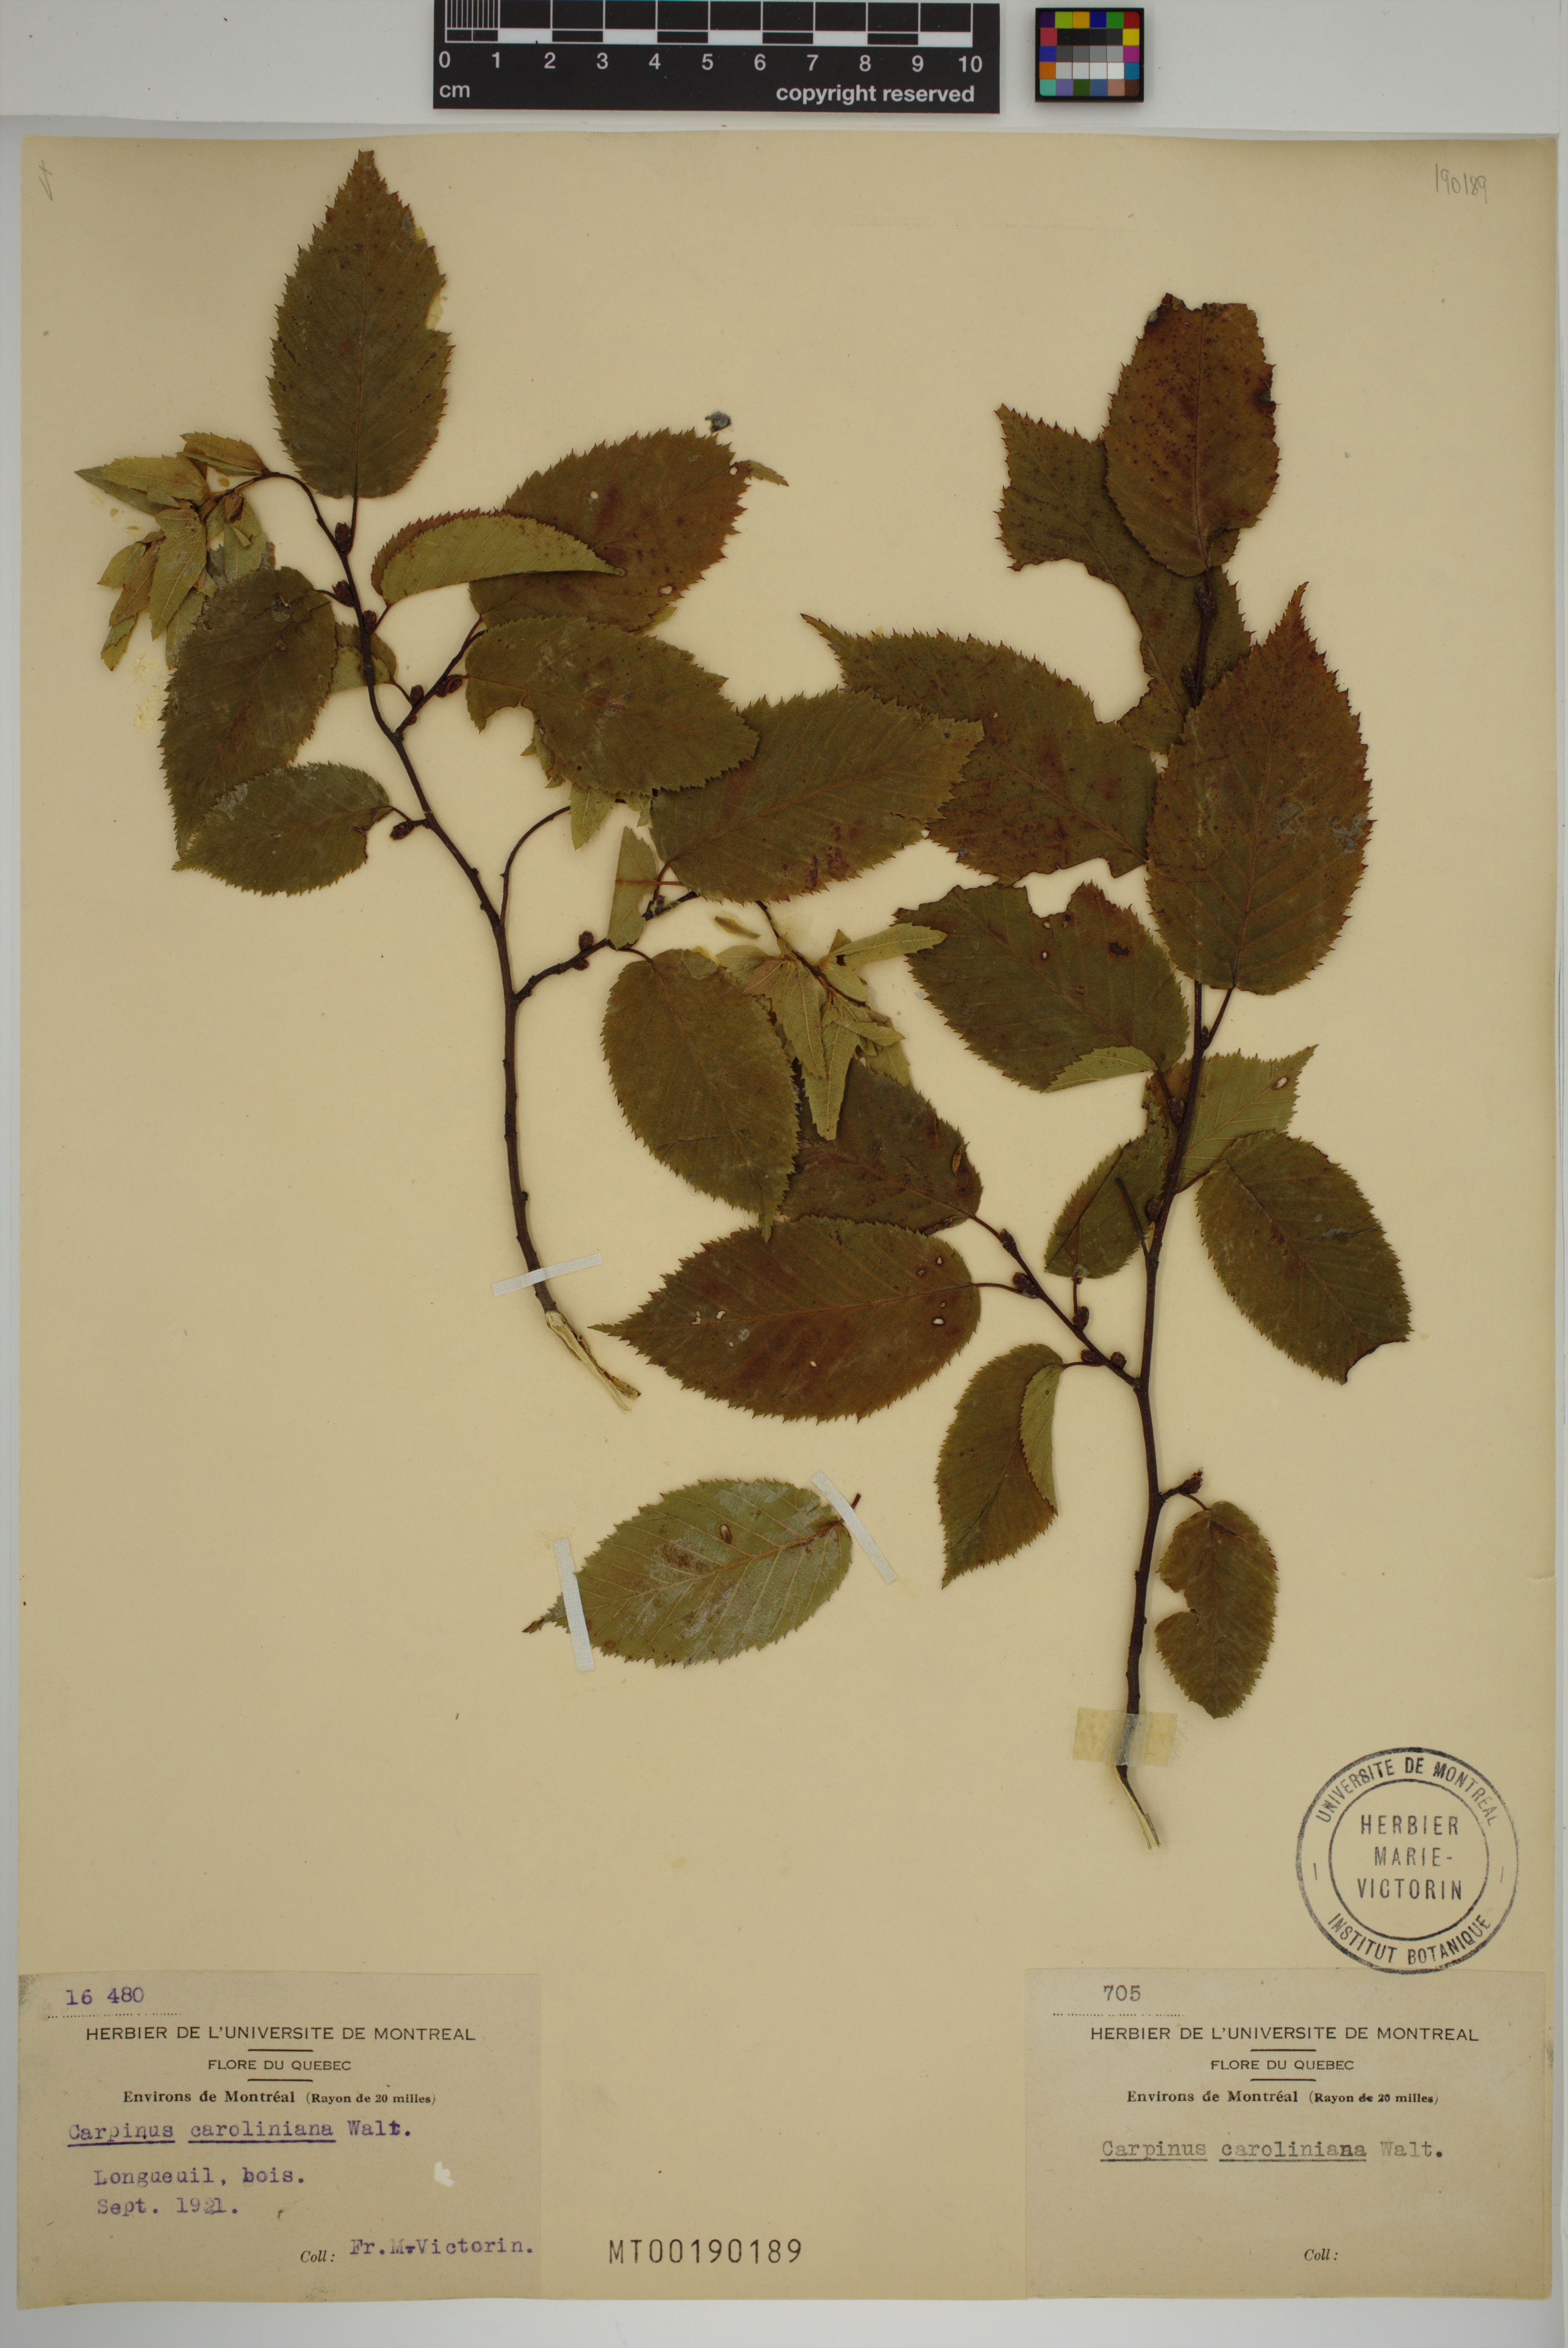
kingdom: Plantae
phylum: Tracheophyta
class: Magnoliopsida
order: Fagales
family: Betulaceae
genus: Carpinus
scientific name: Carpinus caroliniana
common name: American hornbeam
